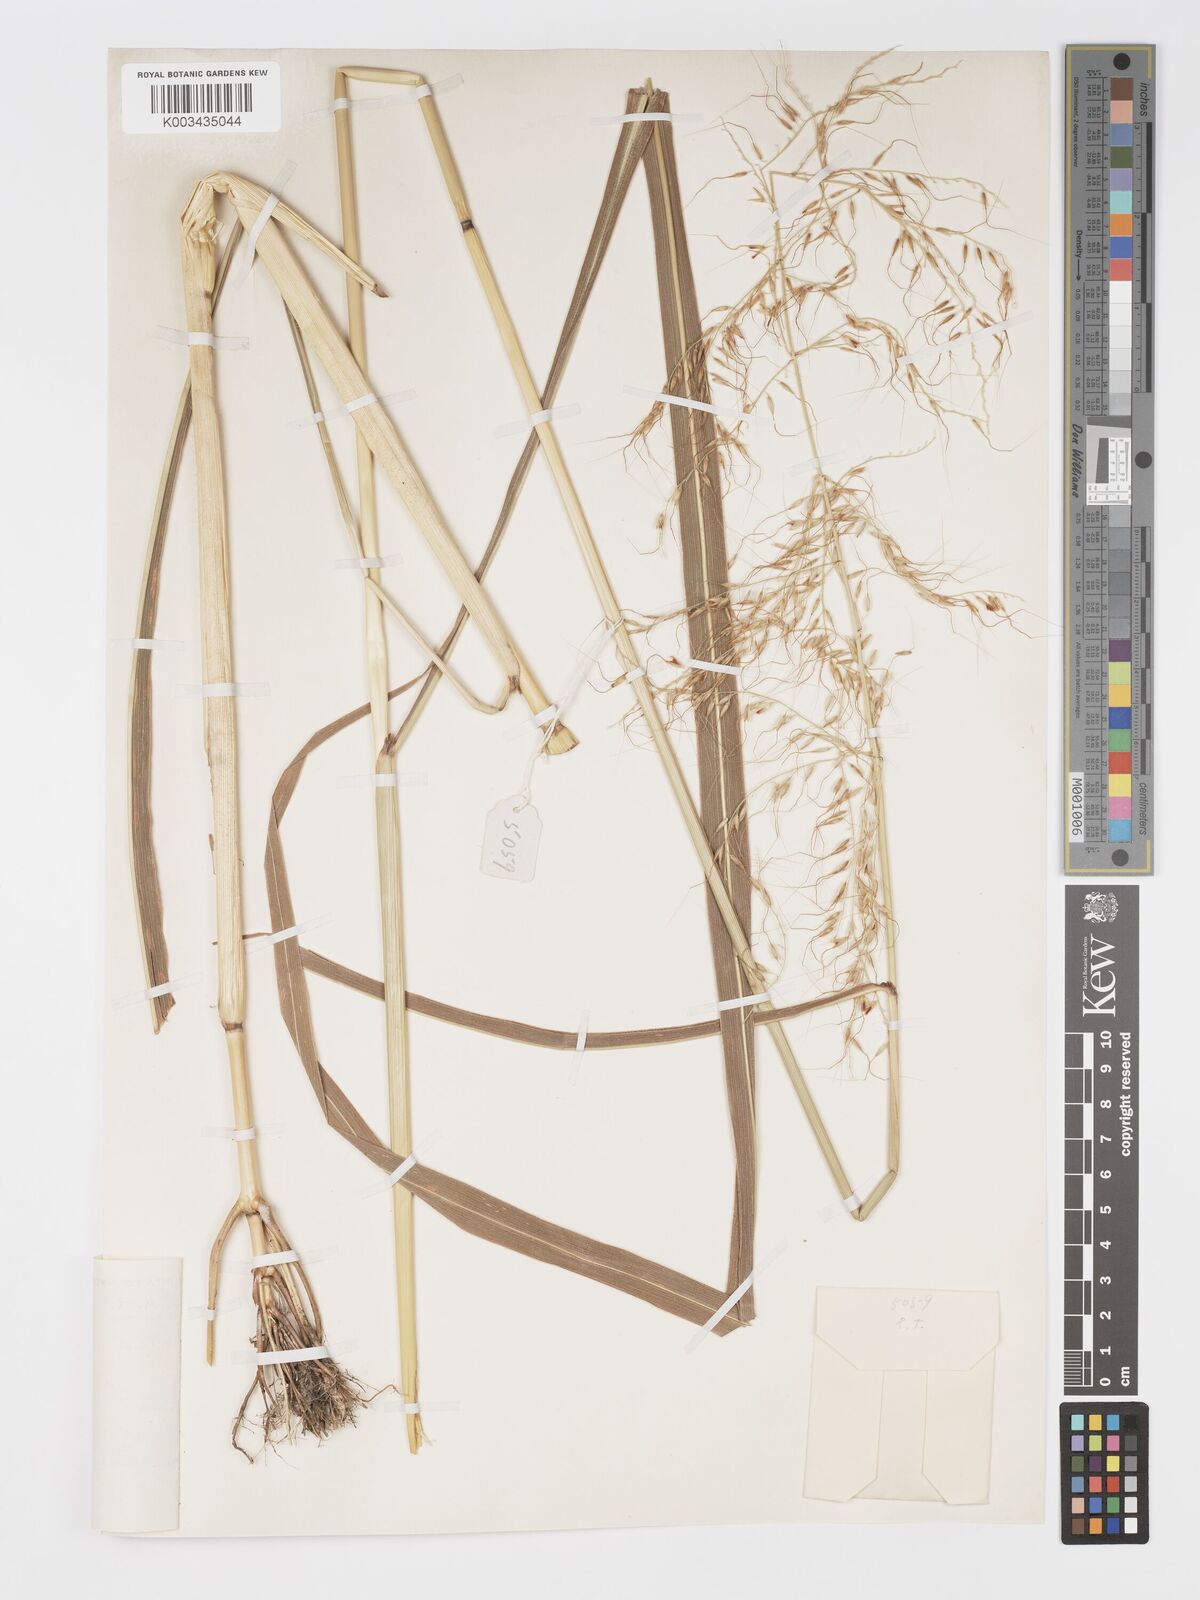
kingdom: Plantae
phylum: Tracheophyta
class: Liliopsida
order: Poales
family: Poaceae
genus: Cleistachne
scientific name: Cleistachne sorghoides
